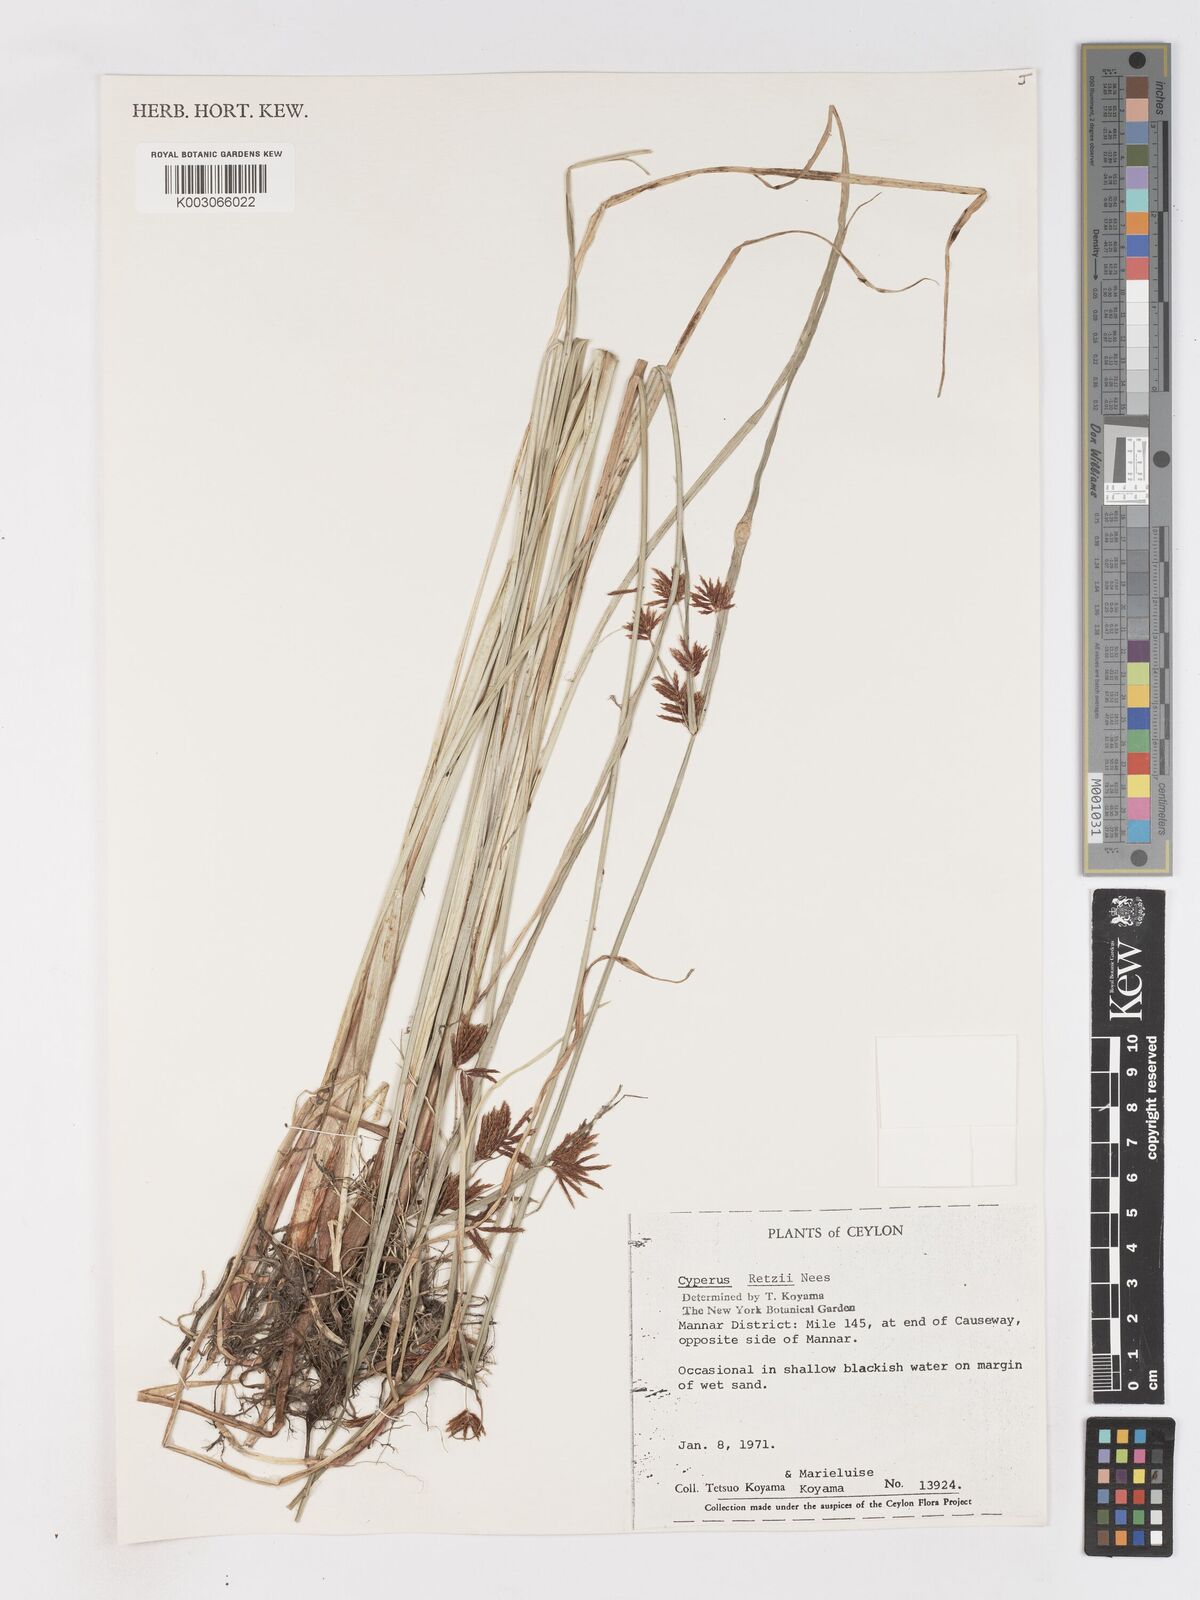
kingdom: Plantae
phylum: Tracheophyta
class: Liliopsida
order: Poales
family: Cyperaceae
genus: Cyperus
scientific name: Cyperus mitis
